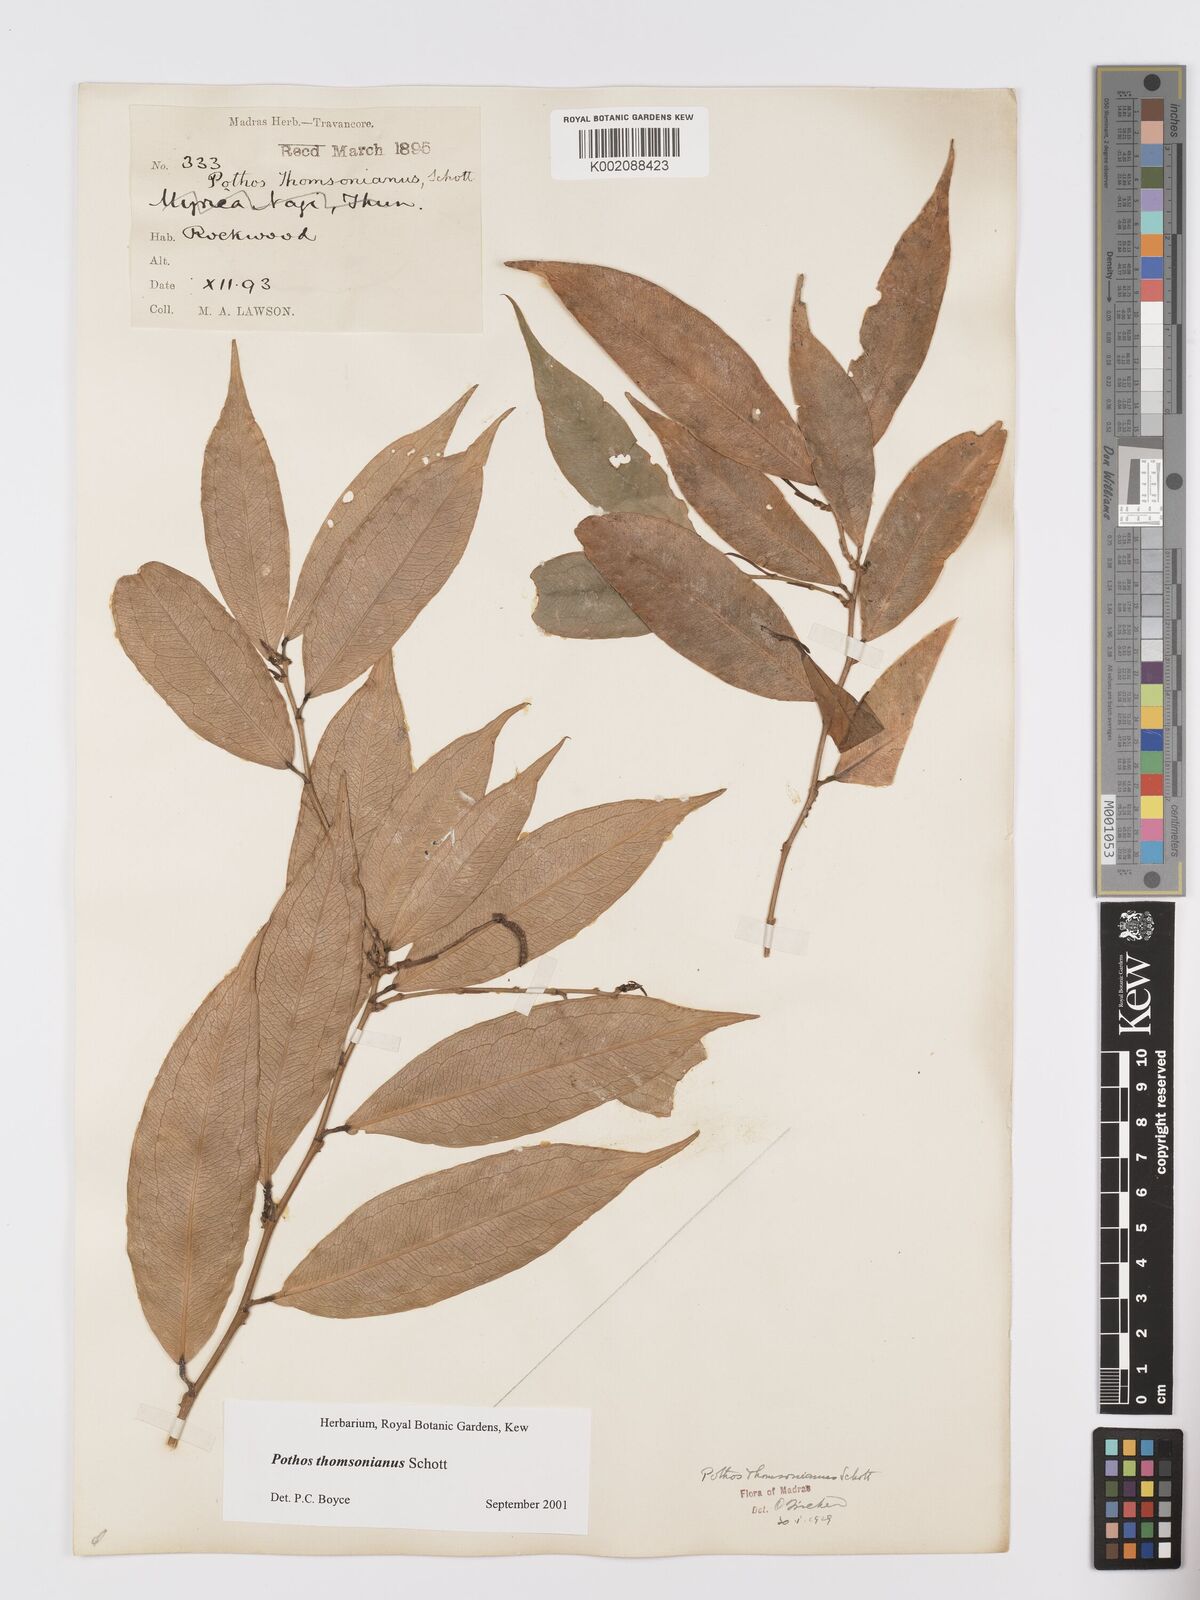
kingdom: Plantae
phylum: Tracheophyta
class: Liliopsida
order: Alismatales
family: Araceae
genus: Pothos
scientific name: Pothos thomsonianus
